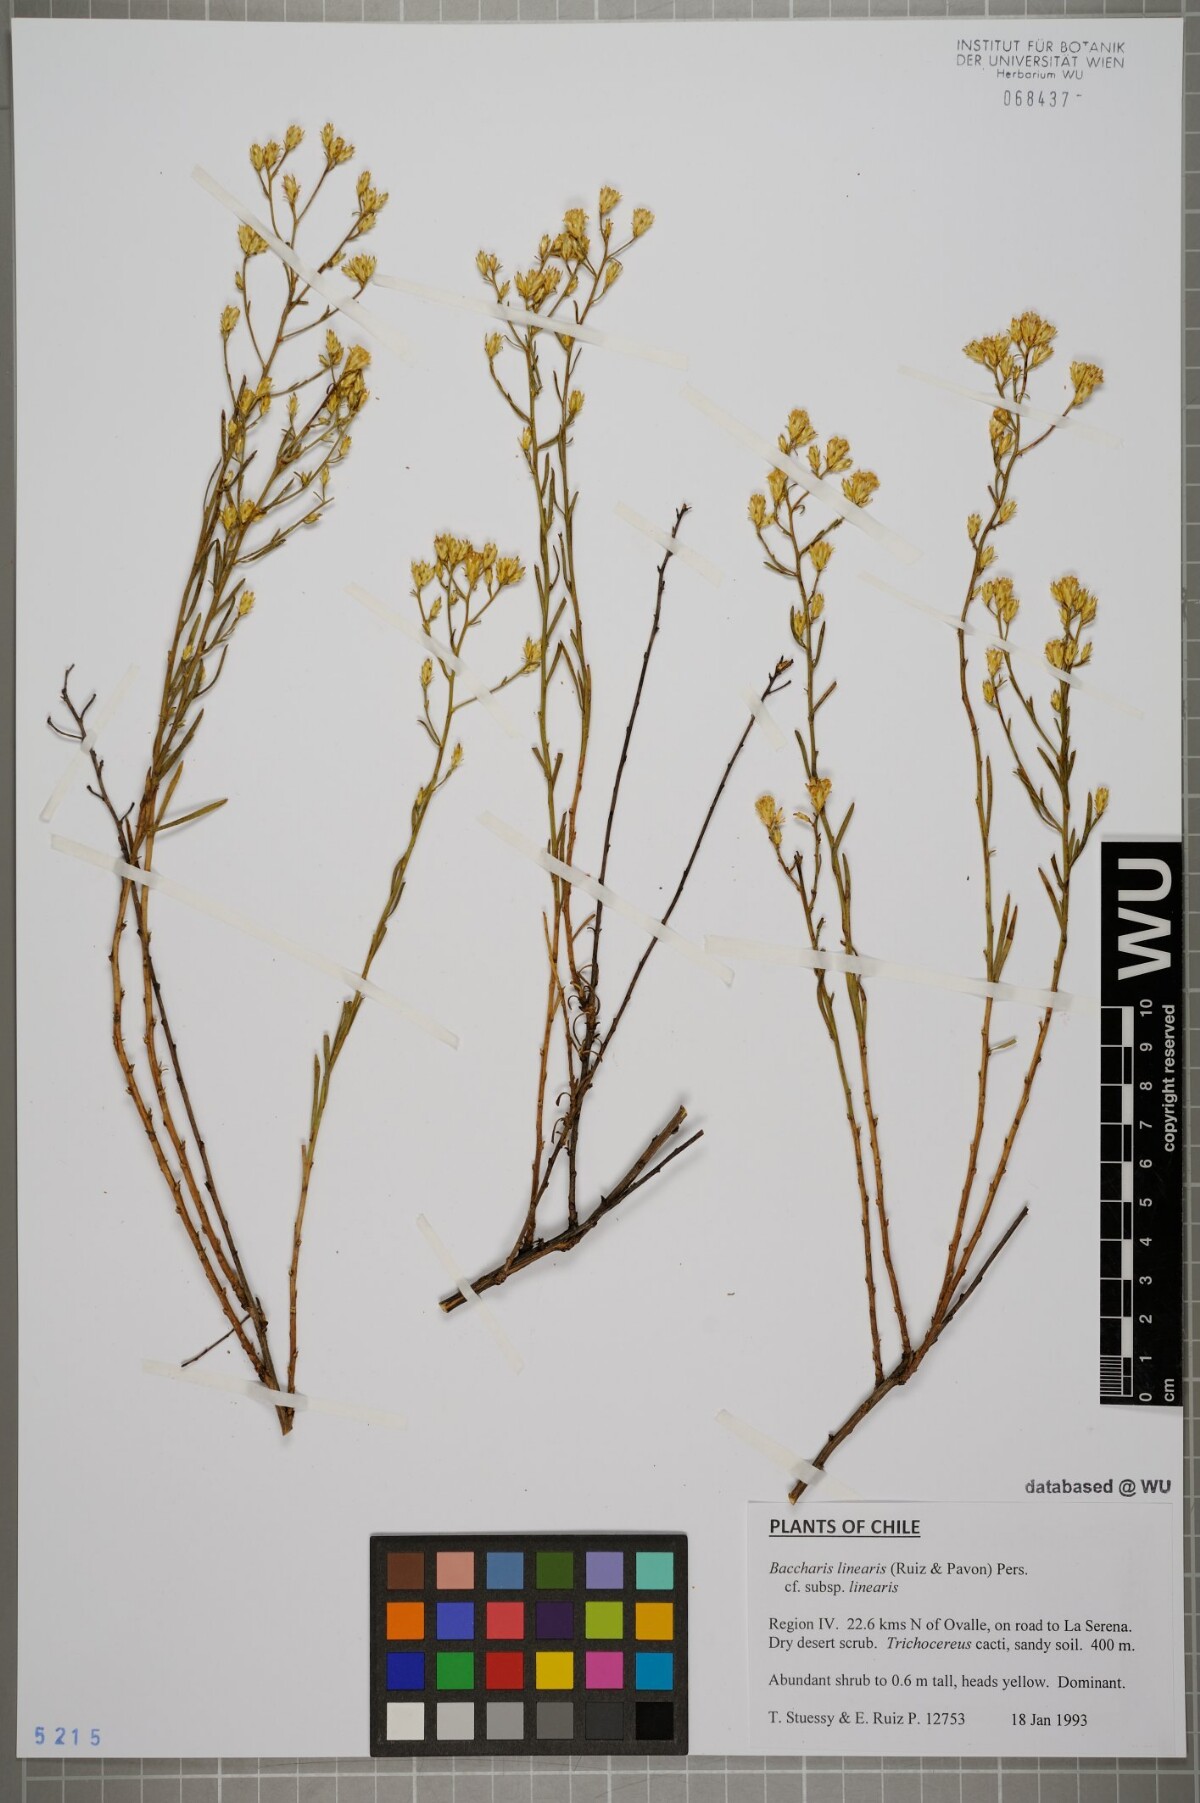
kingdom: Plantae
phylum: Tracheophyta
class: Magnoliopsida
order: Asterales
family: Asteraceae
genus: Baccharis
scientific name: Baccharis linearis
